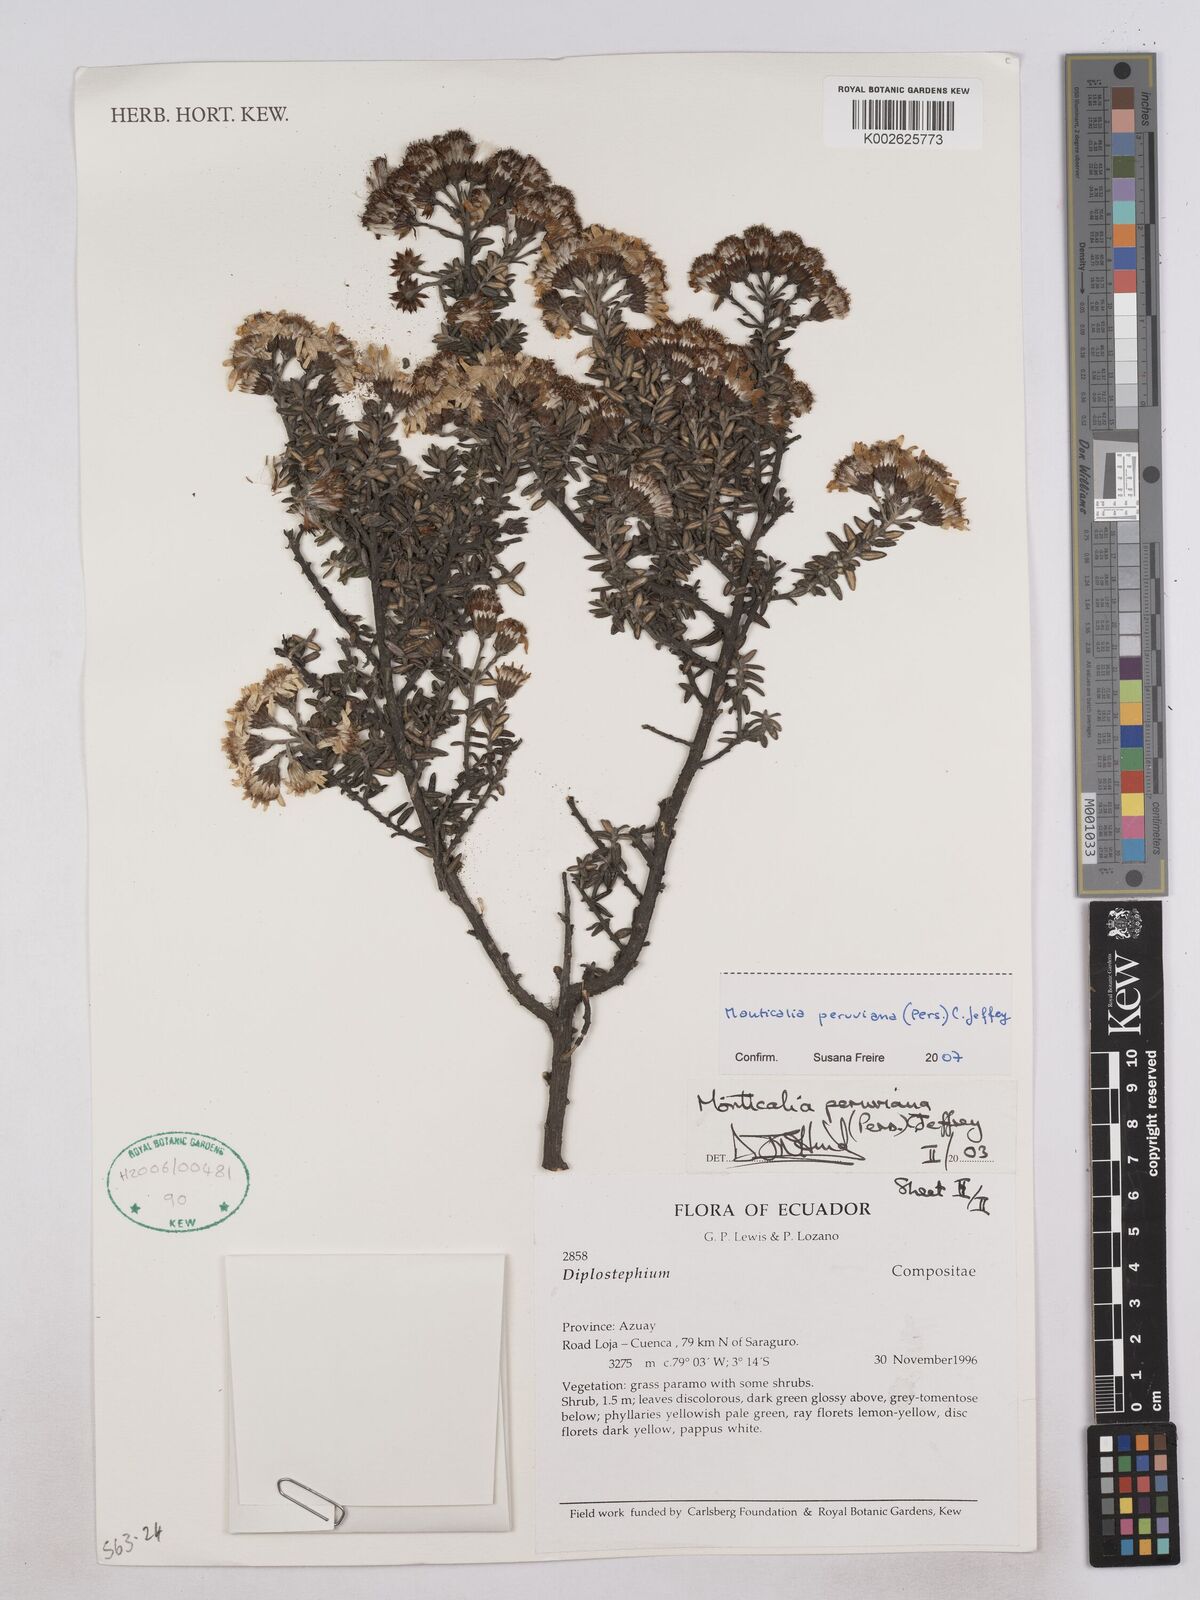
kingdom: Plantae
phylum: Tracheophyta
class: Magnoliopsida
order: Asterales
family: Asteraceae
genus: Monticalia
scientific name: Monticalia peruviana
